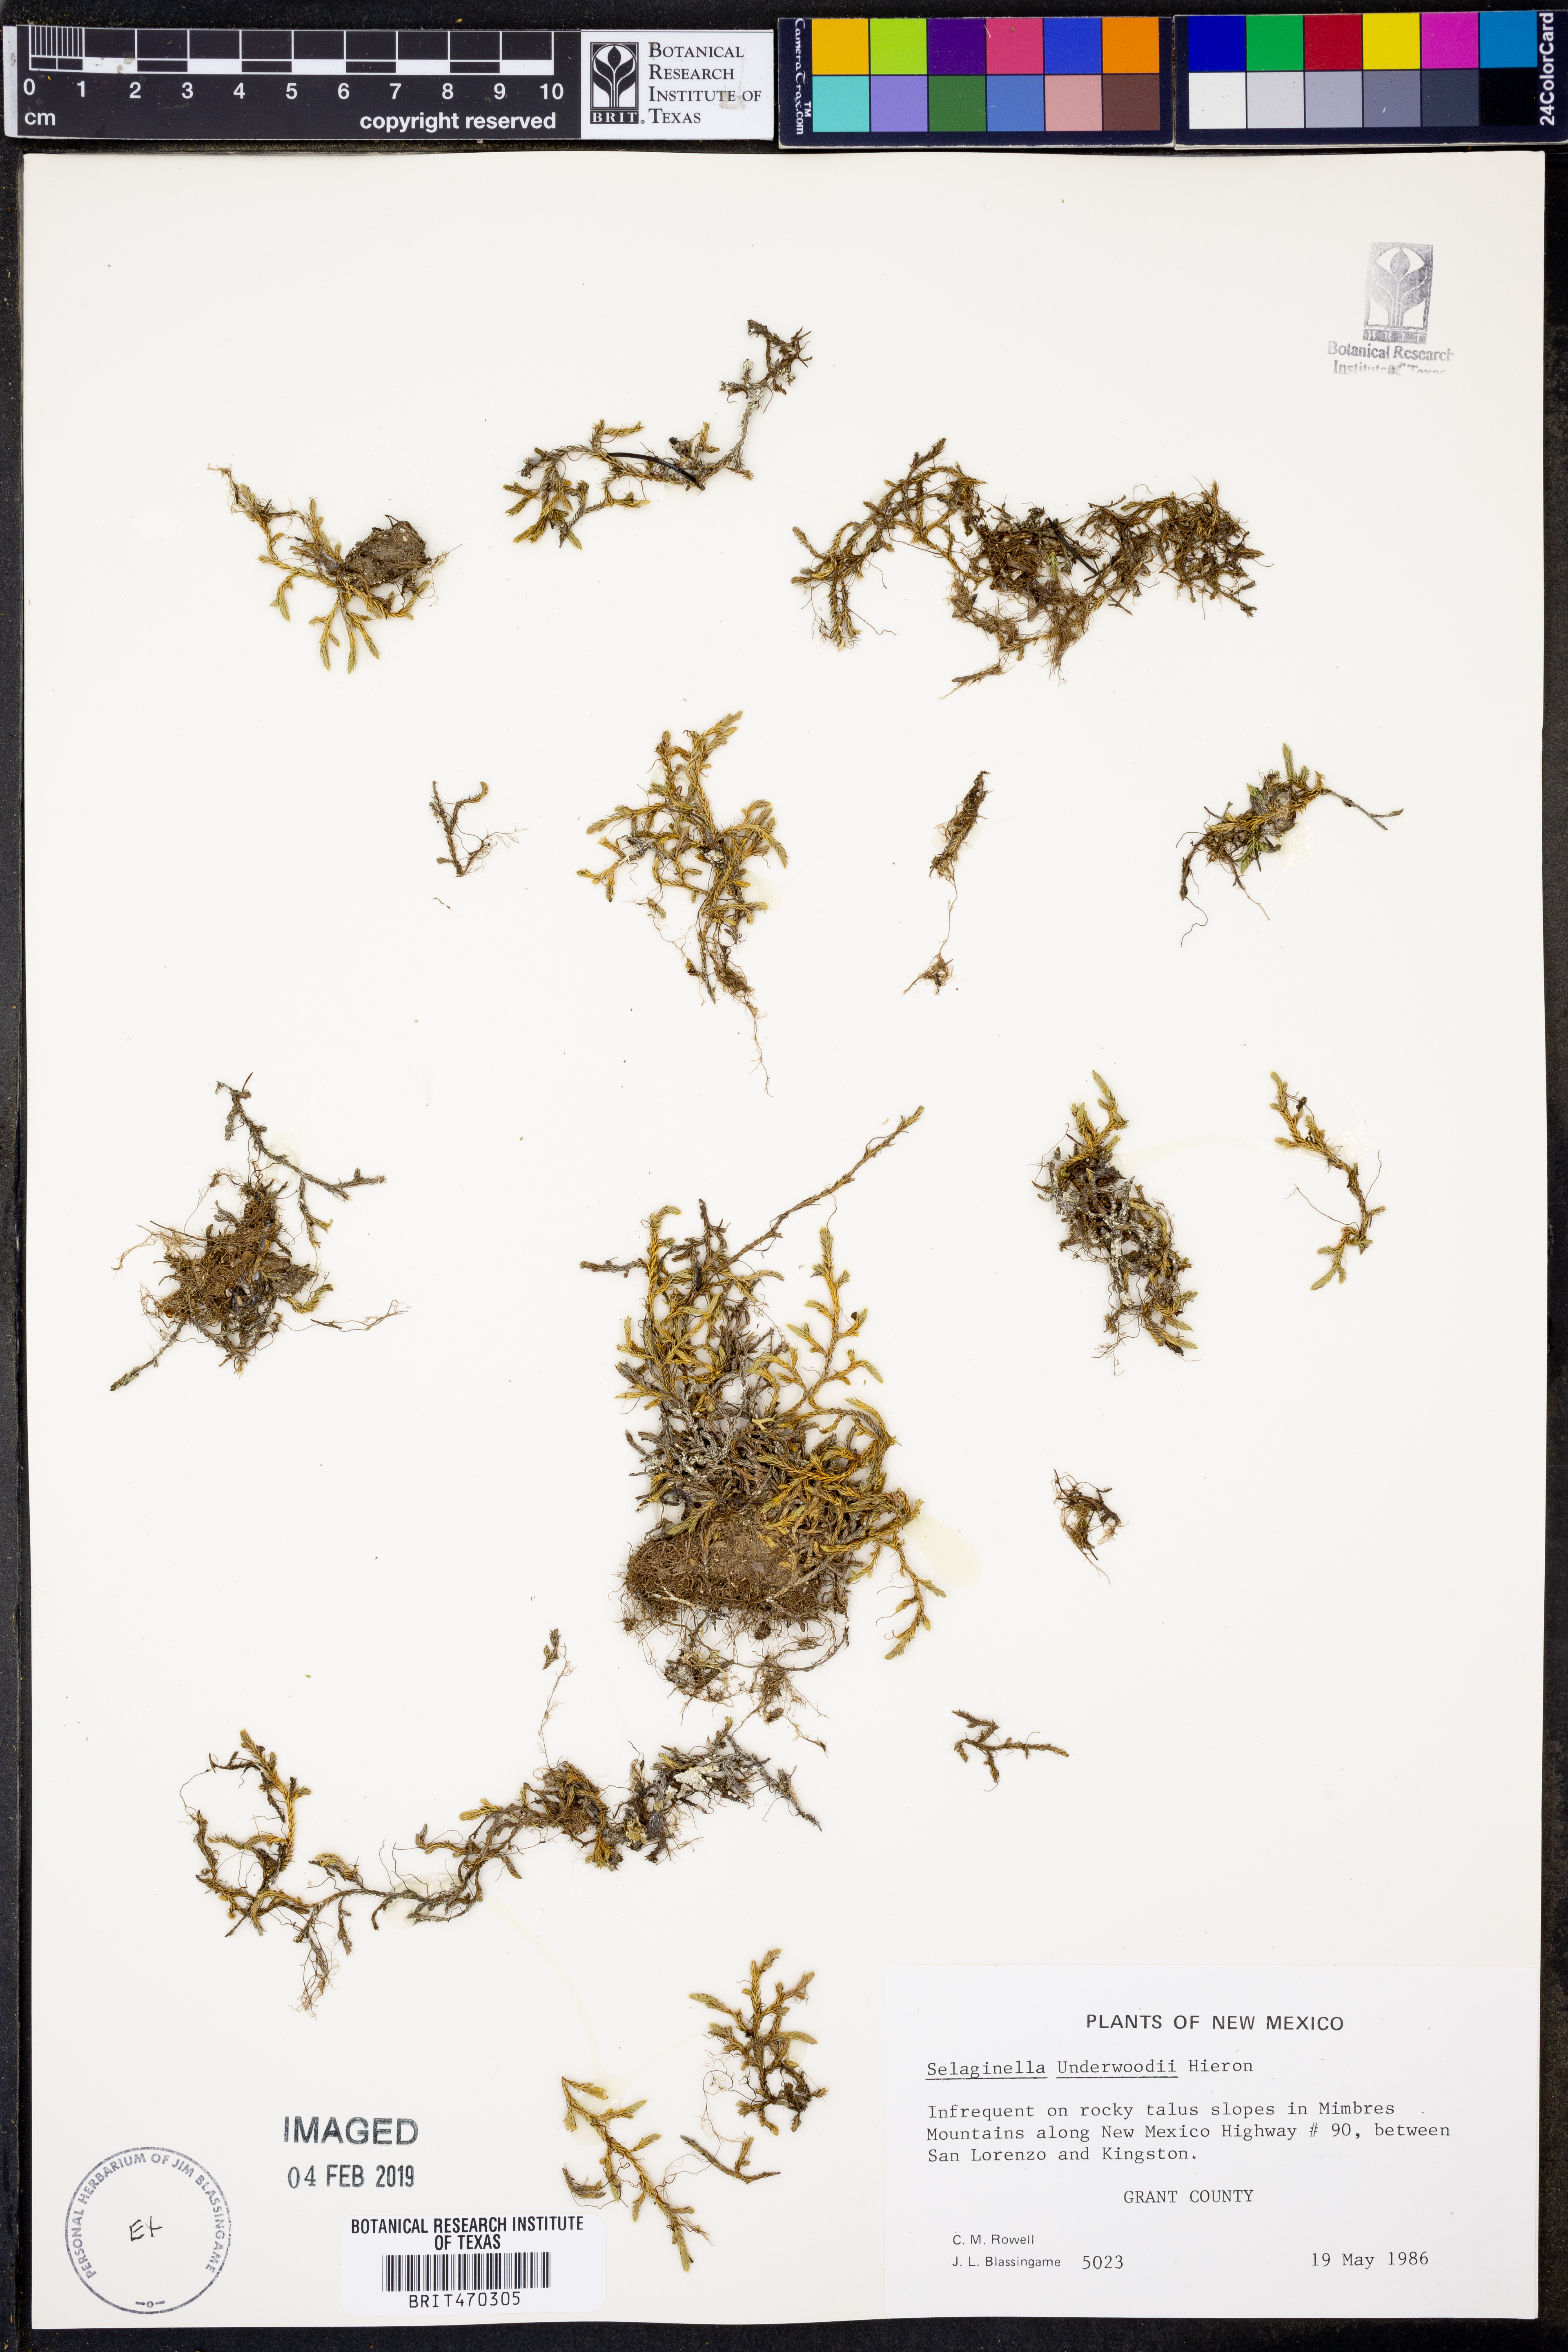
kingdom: Plantae
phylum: Tracheophyta
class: Lycopodiopsida
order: Selaginellales
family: Selaginellaceae
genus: Selaginella
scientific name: Selaginella underwoodii
